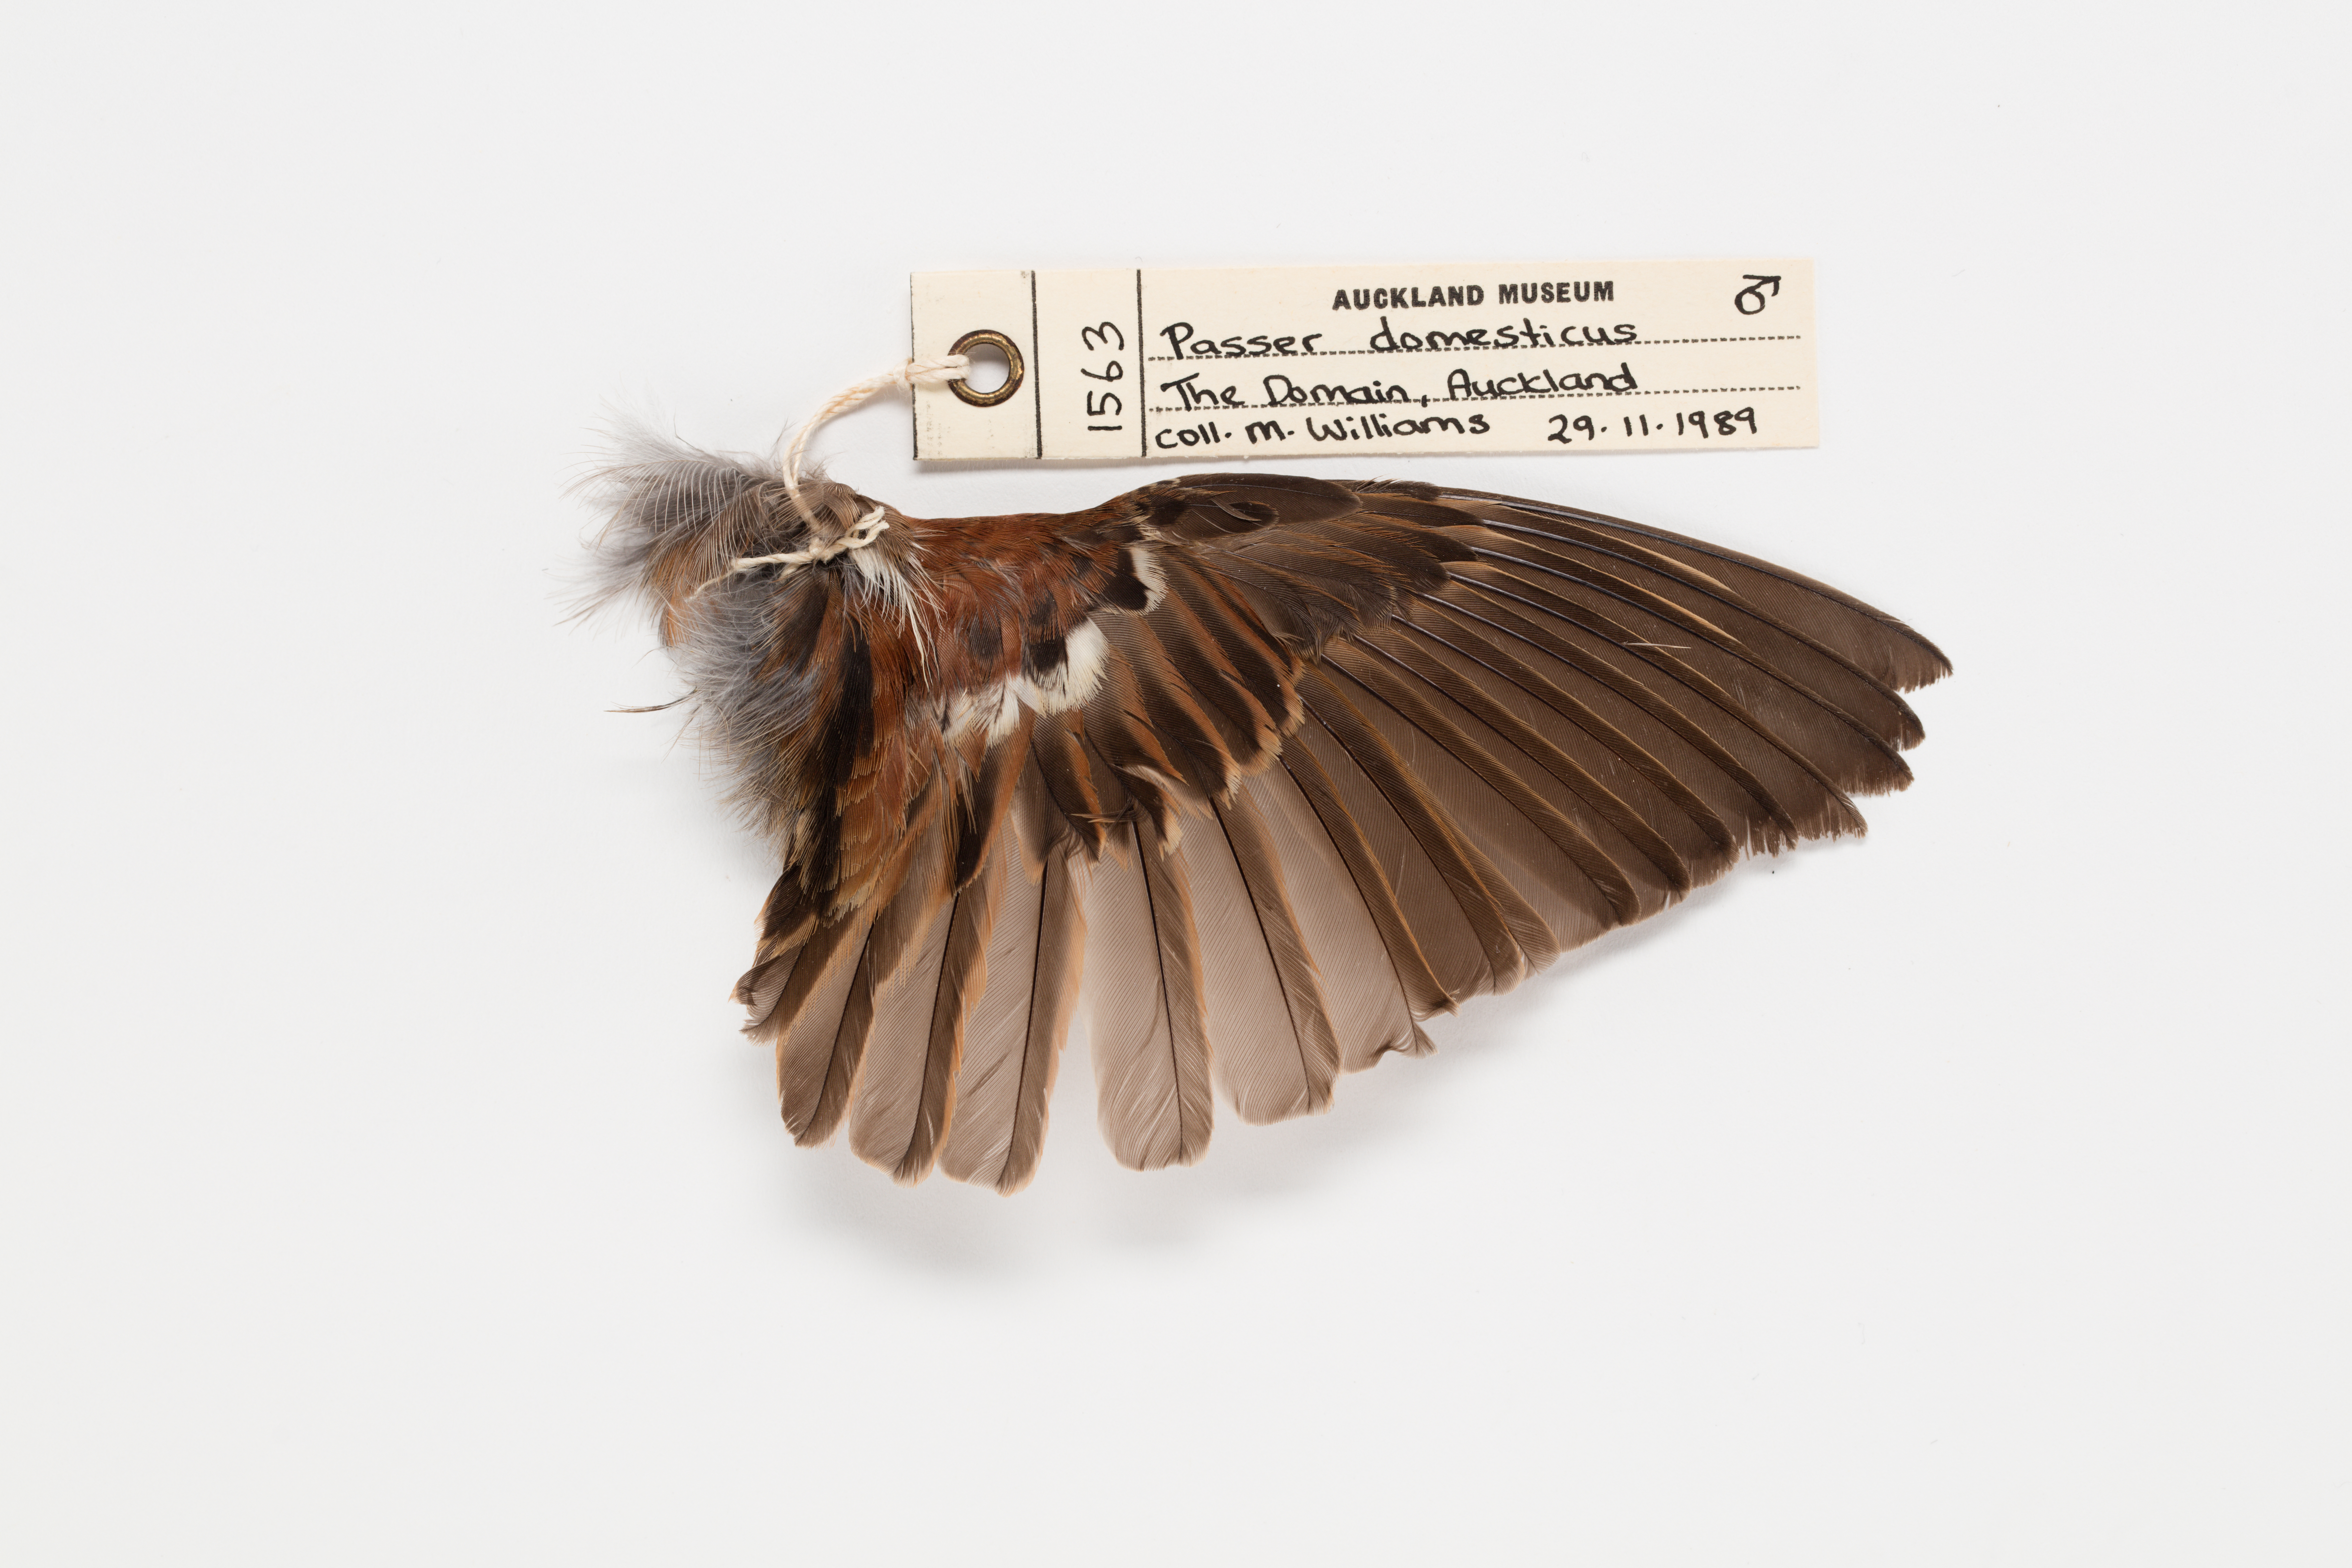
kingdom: Animalia
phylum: Chordata
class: Aves
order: Passeriformes
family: Passeridae
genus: Passer
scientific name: Passer domesticus
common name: House sparrow
